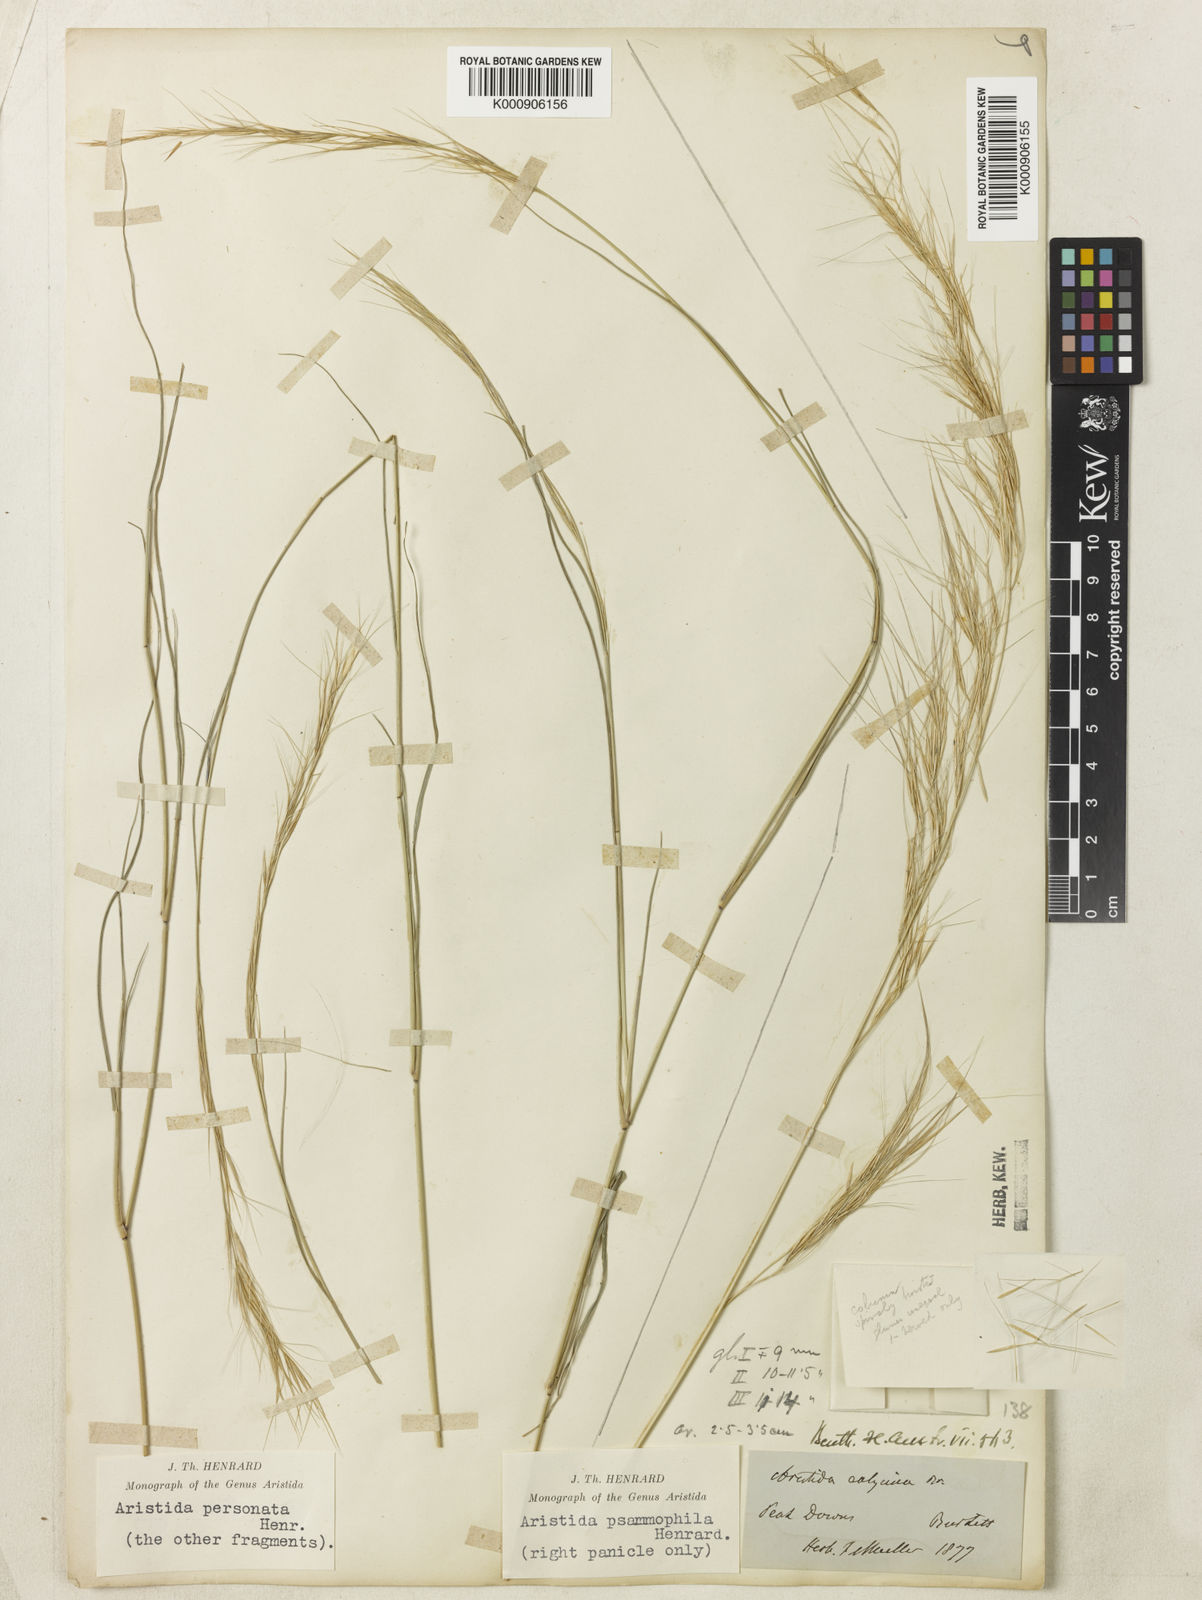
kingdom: Plantae
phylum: Tracheophyta
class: Liliopsida
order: Poales
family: Poaceae
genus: Aristida
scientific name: Aristida psammophila
